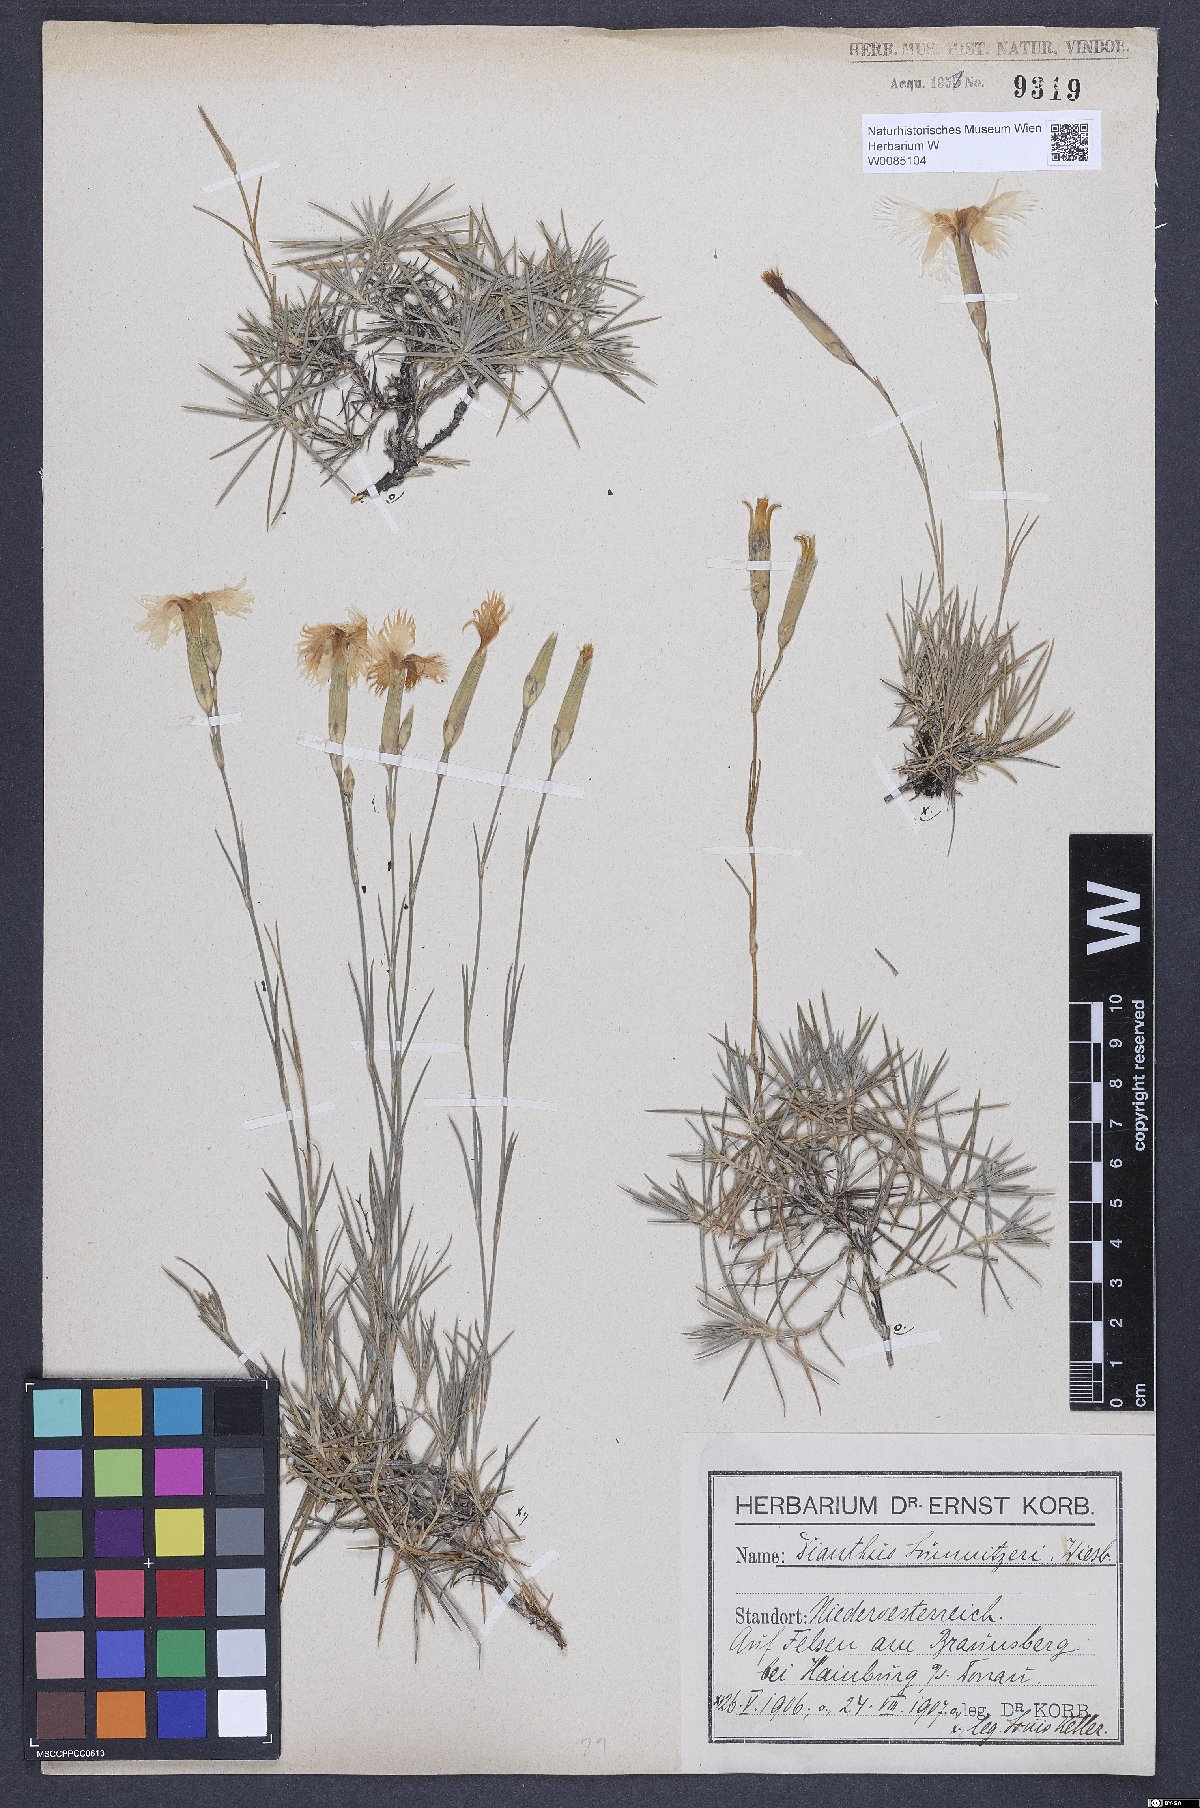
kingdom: Plantae
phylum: Tracheophyta
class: Magnoliopsida
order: Caryophyllales
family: Caryophyllaceae
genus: Dianthus
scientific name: Dianthus praecox
